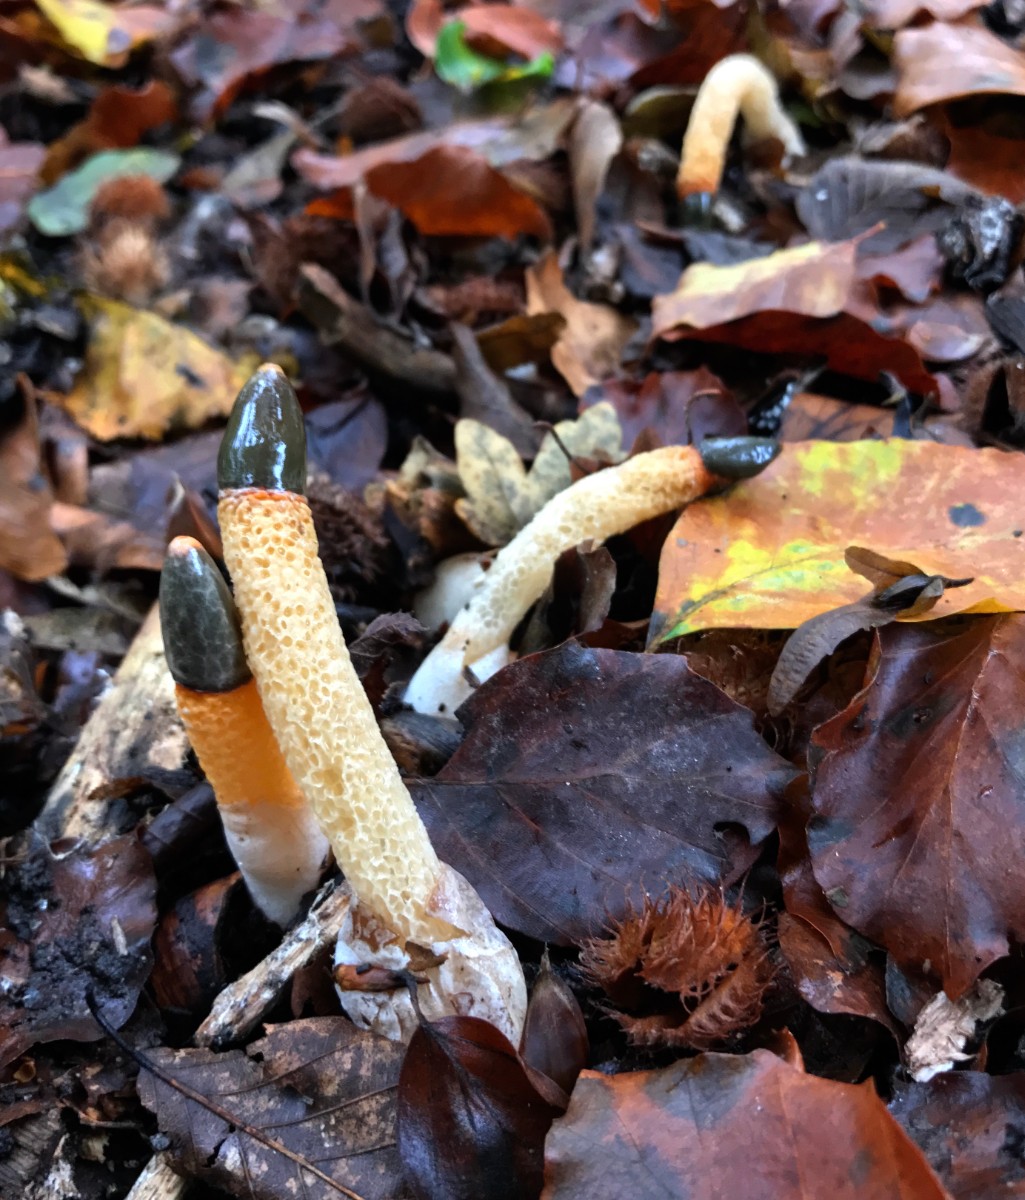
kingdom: Fungi
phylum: Basidiomycota
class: Agaricomycetes
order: Phallales
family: Phallaceae
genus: Mutinus
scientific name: Mutinus caninus
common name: hunde-stinksvamp
